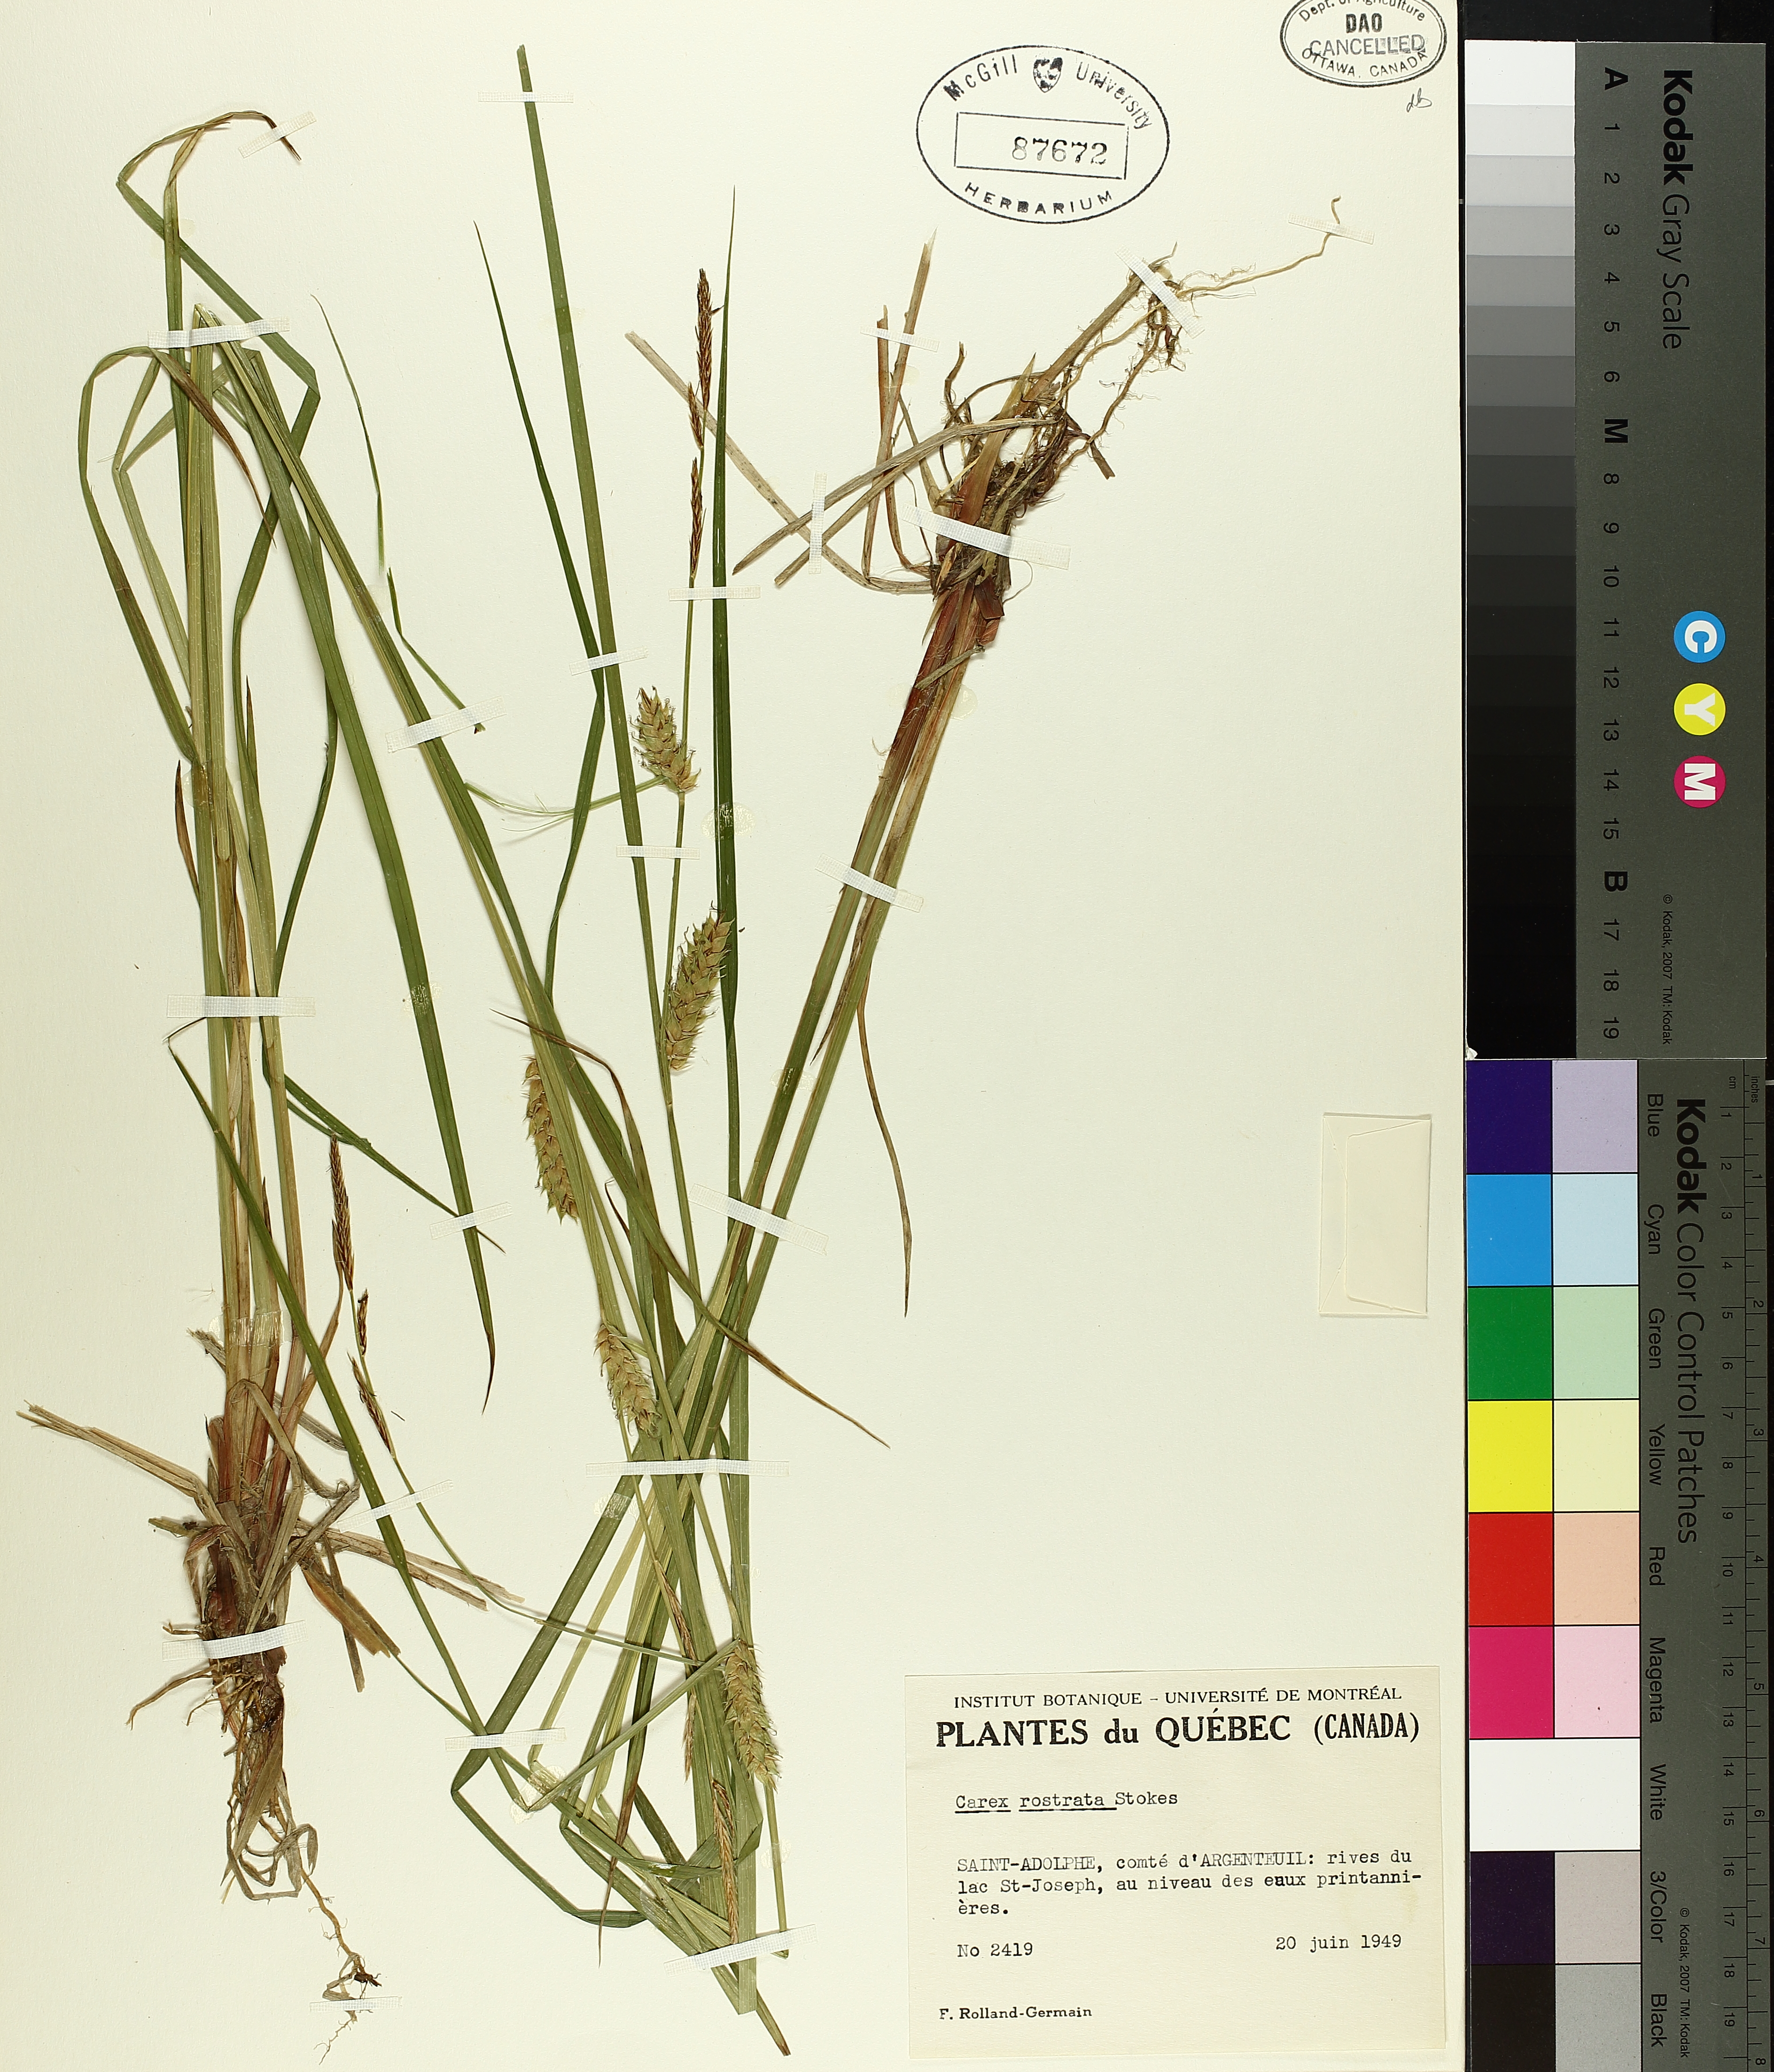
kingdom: Plantae
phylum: Tracheophyta
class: Liliopsida
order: Poales
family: Cyperaceae
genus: Carex
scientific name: Carex rostrata
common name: Bottle sedge
